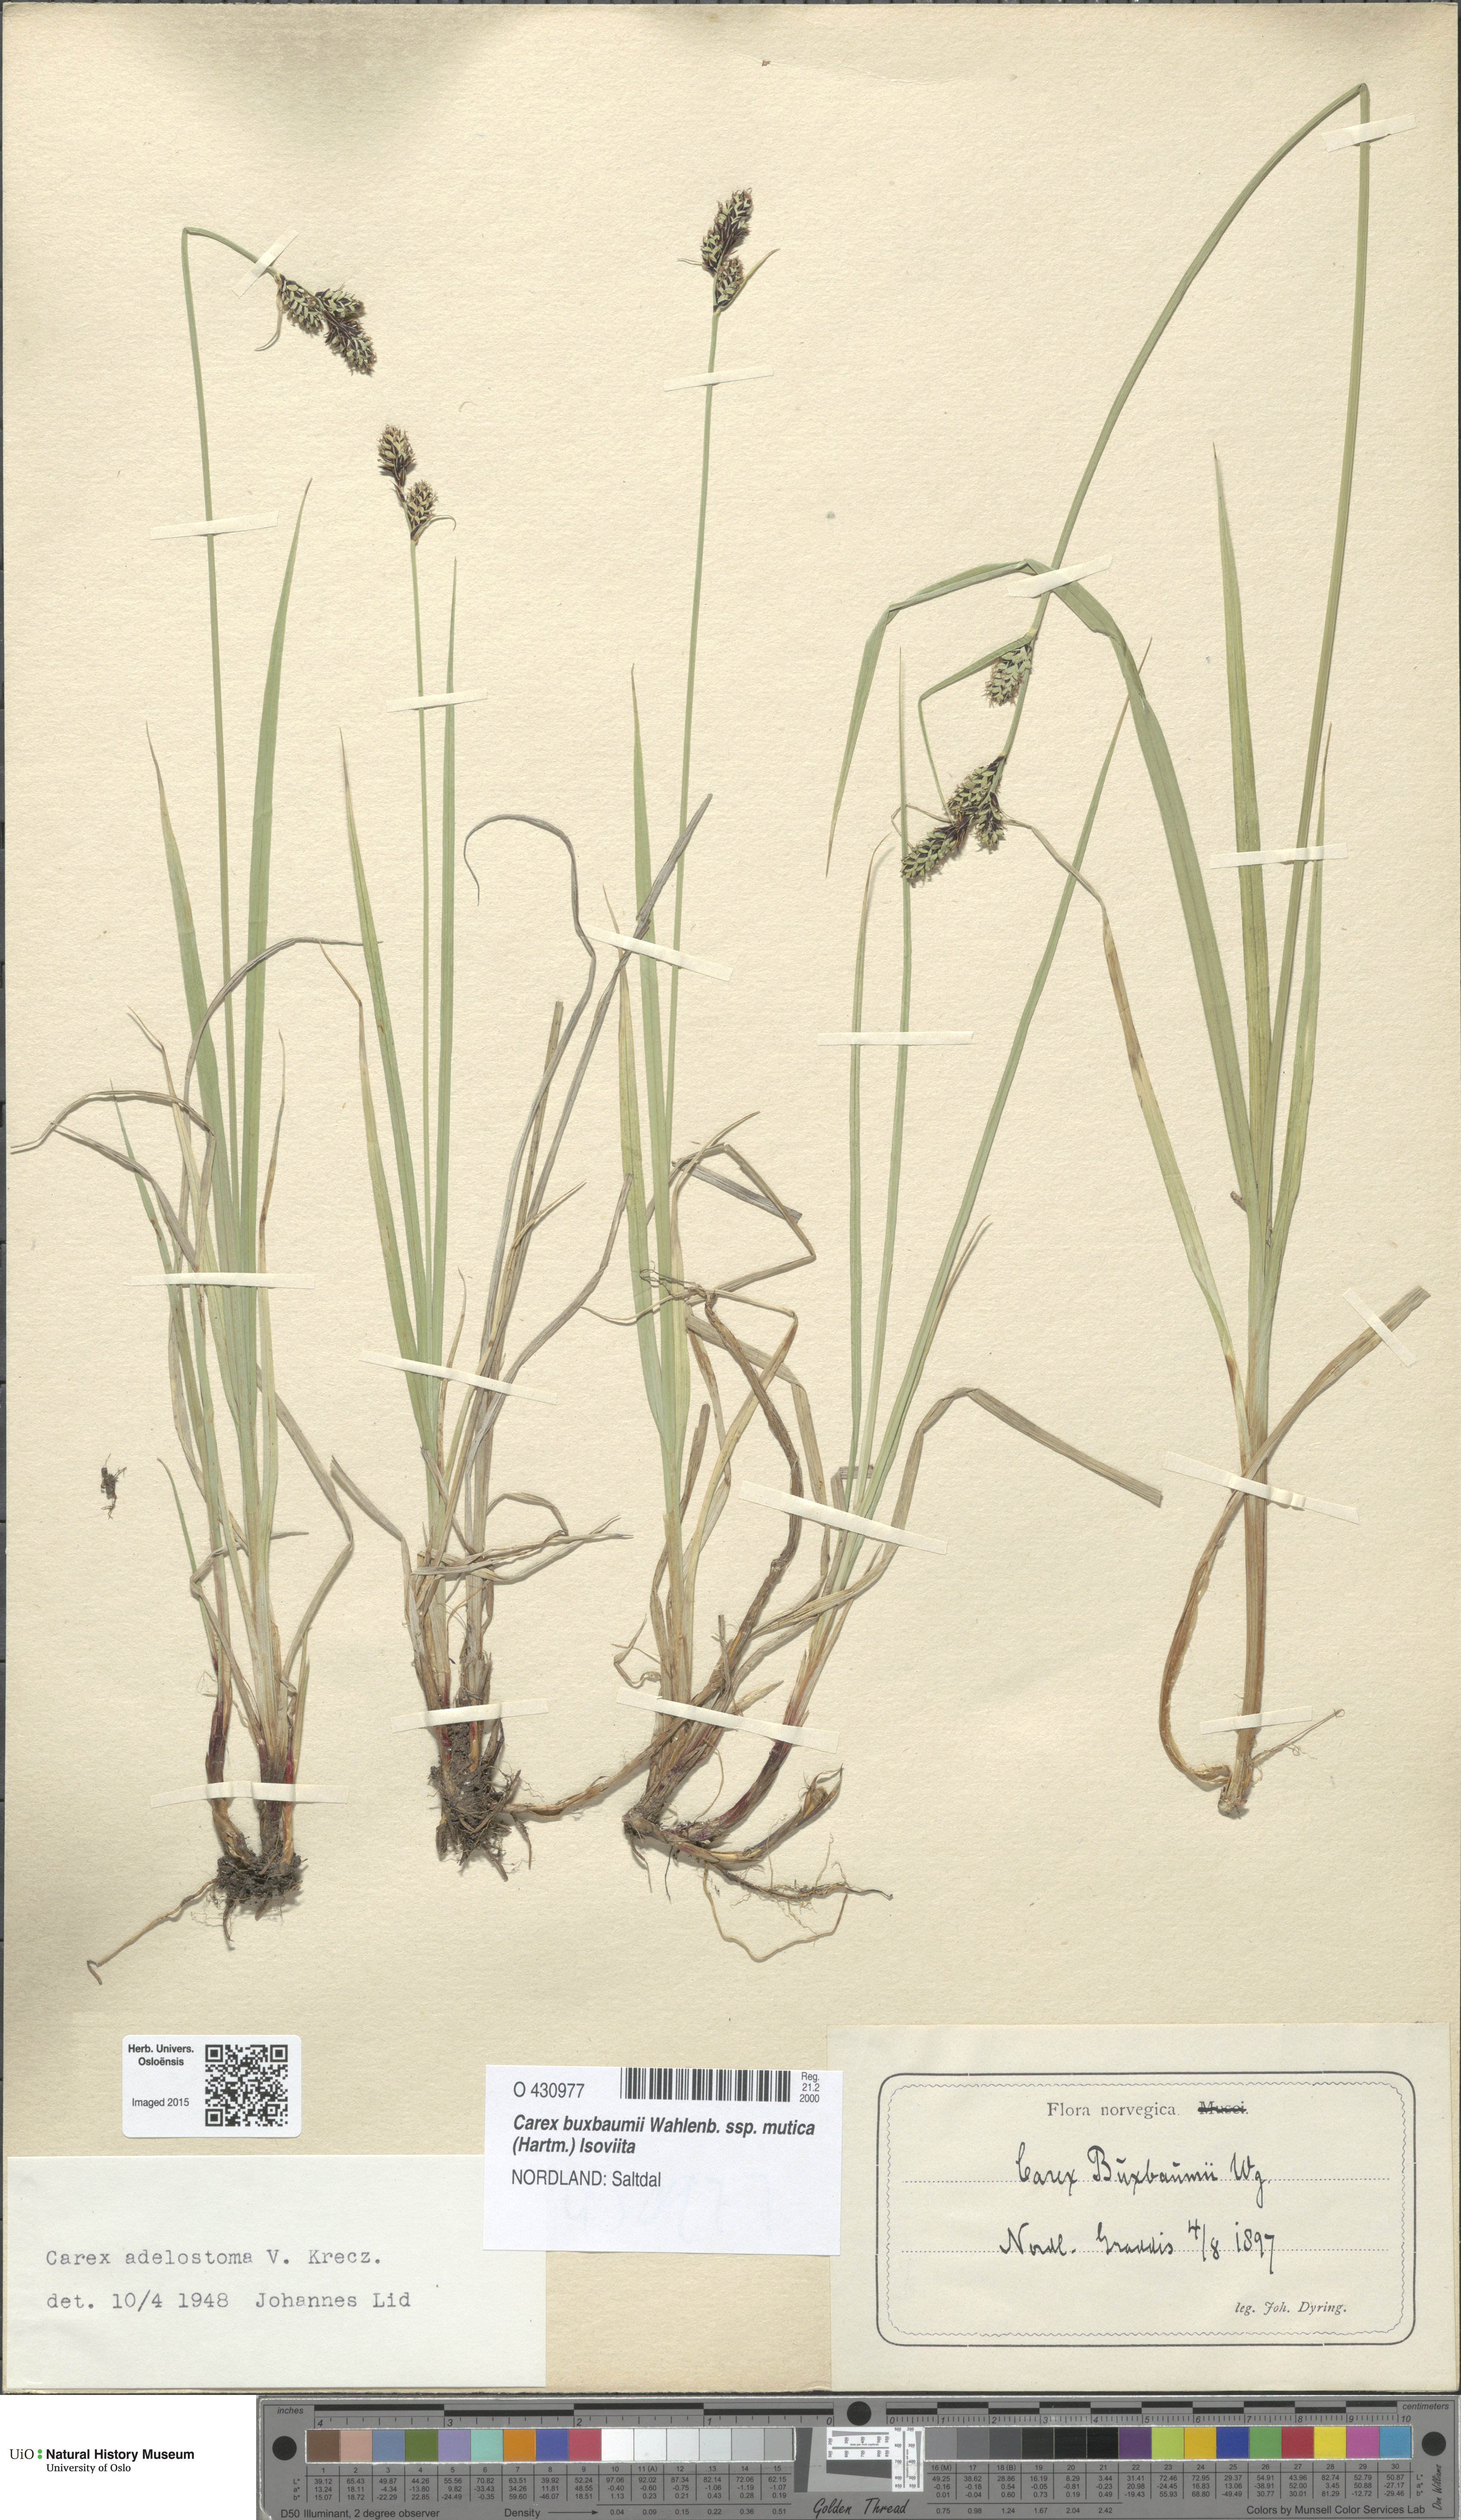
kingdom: Plantae
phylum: Tracheophyta
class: Liliopsida
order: Poales
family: Cyperaceae
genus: Carex
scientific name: Carex buxbaumii
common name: Club sedge
